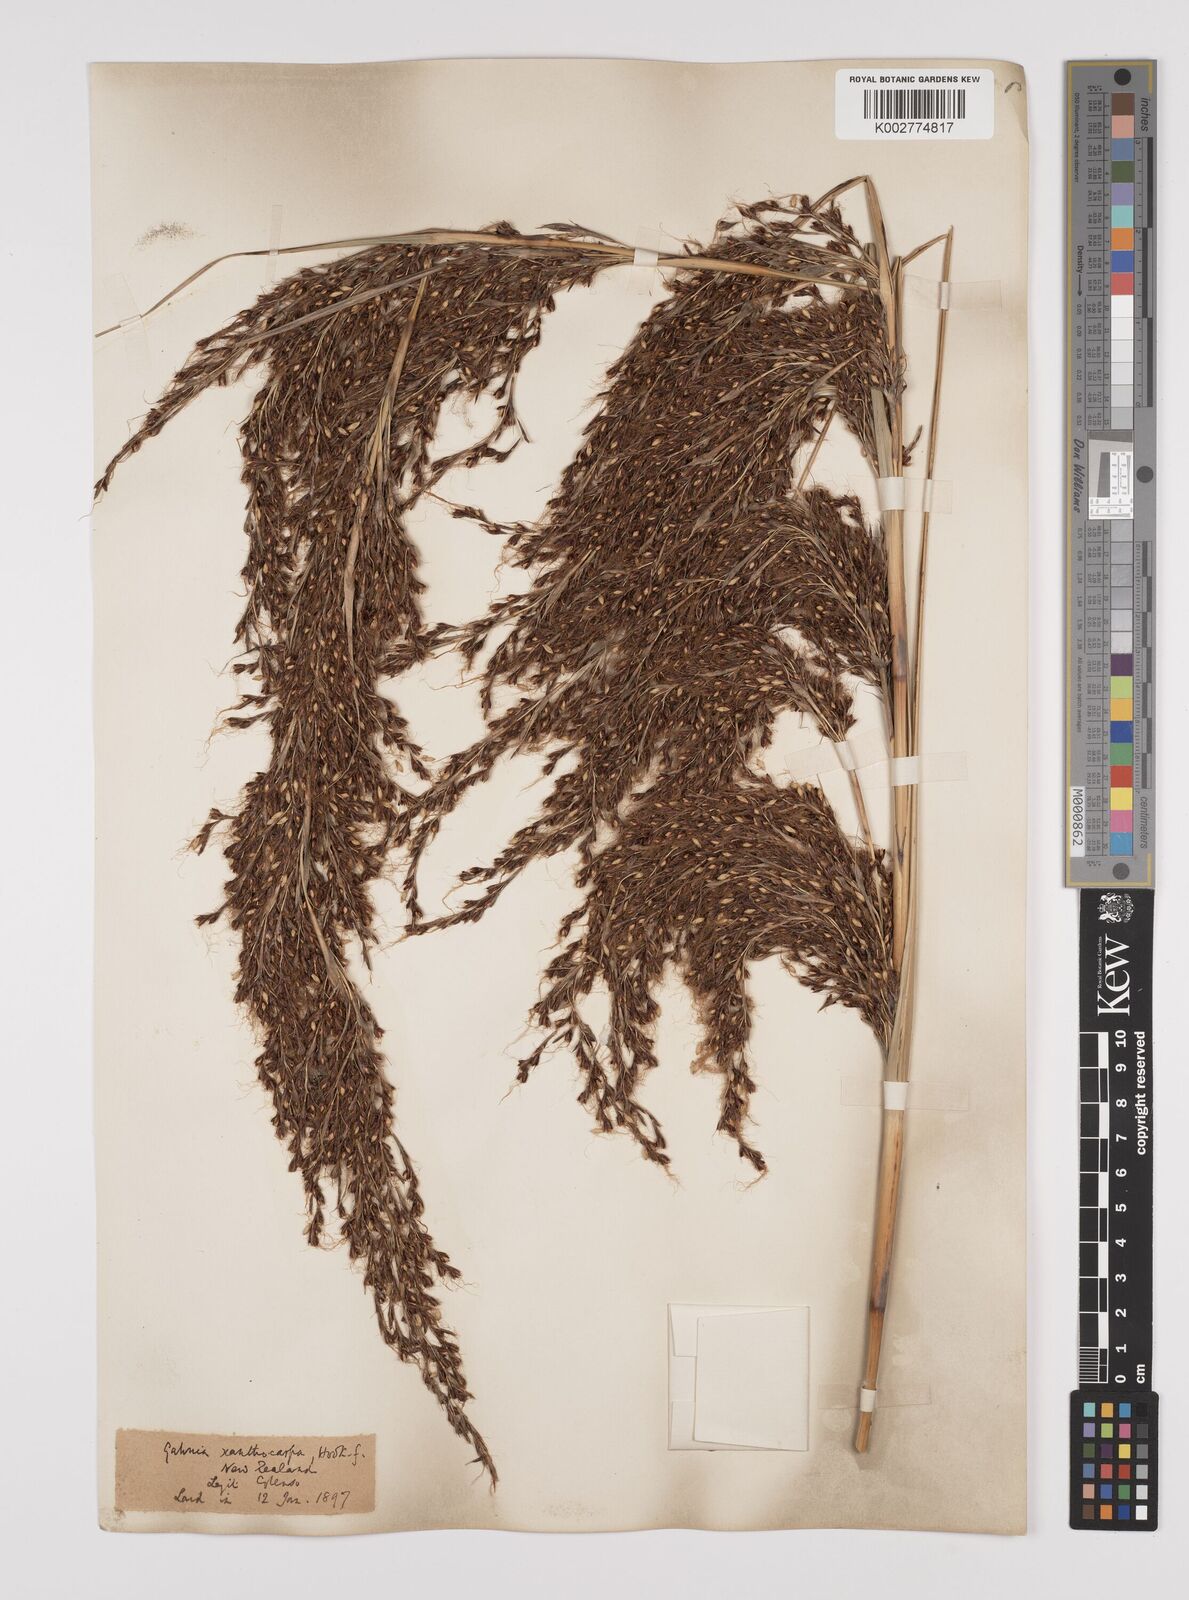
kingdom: Plantae
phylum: Tracheophyta
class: Liliopsida
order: Poales
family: Cyperaceae
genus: Gahnia
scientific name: Gahnia xanthocarpa
